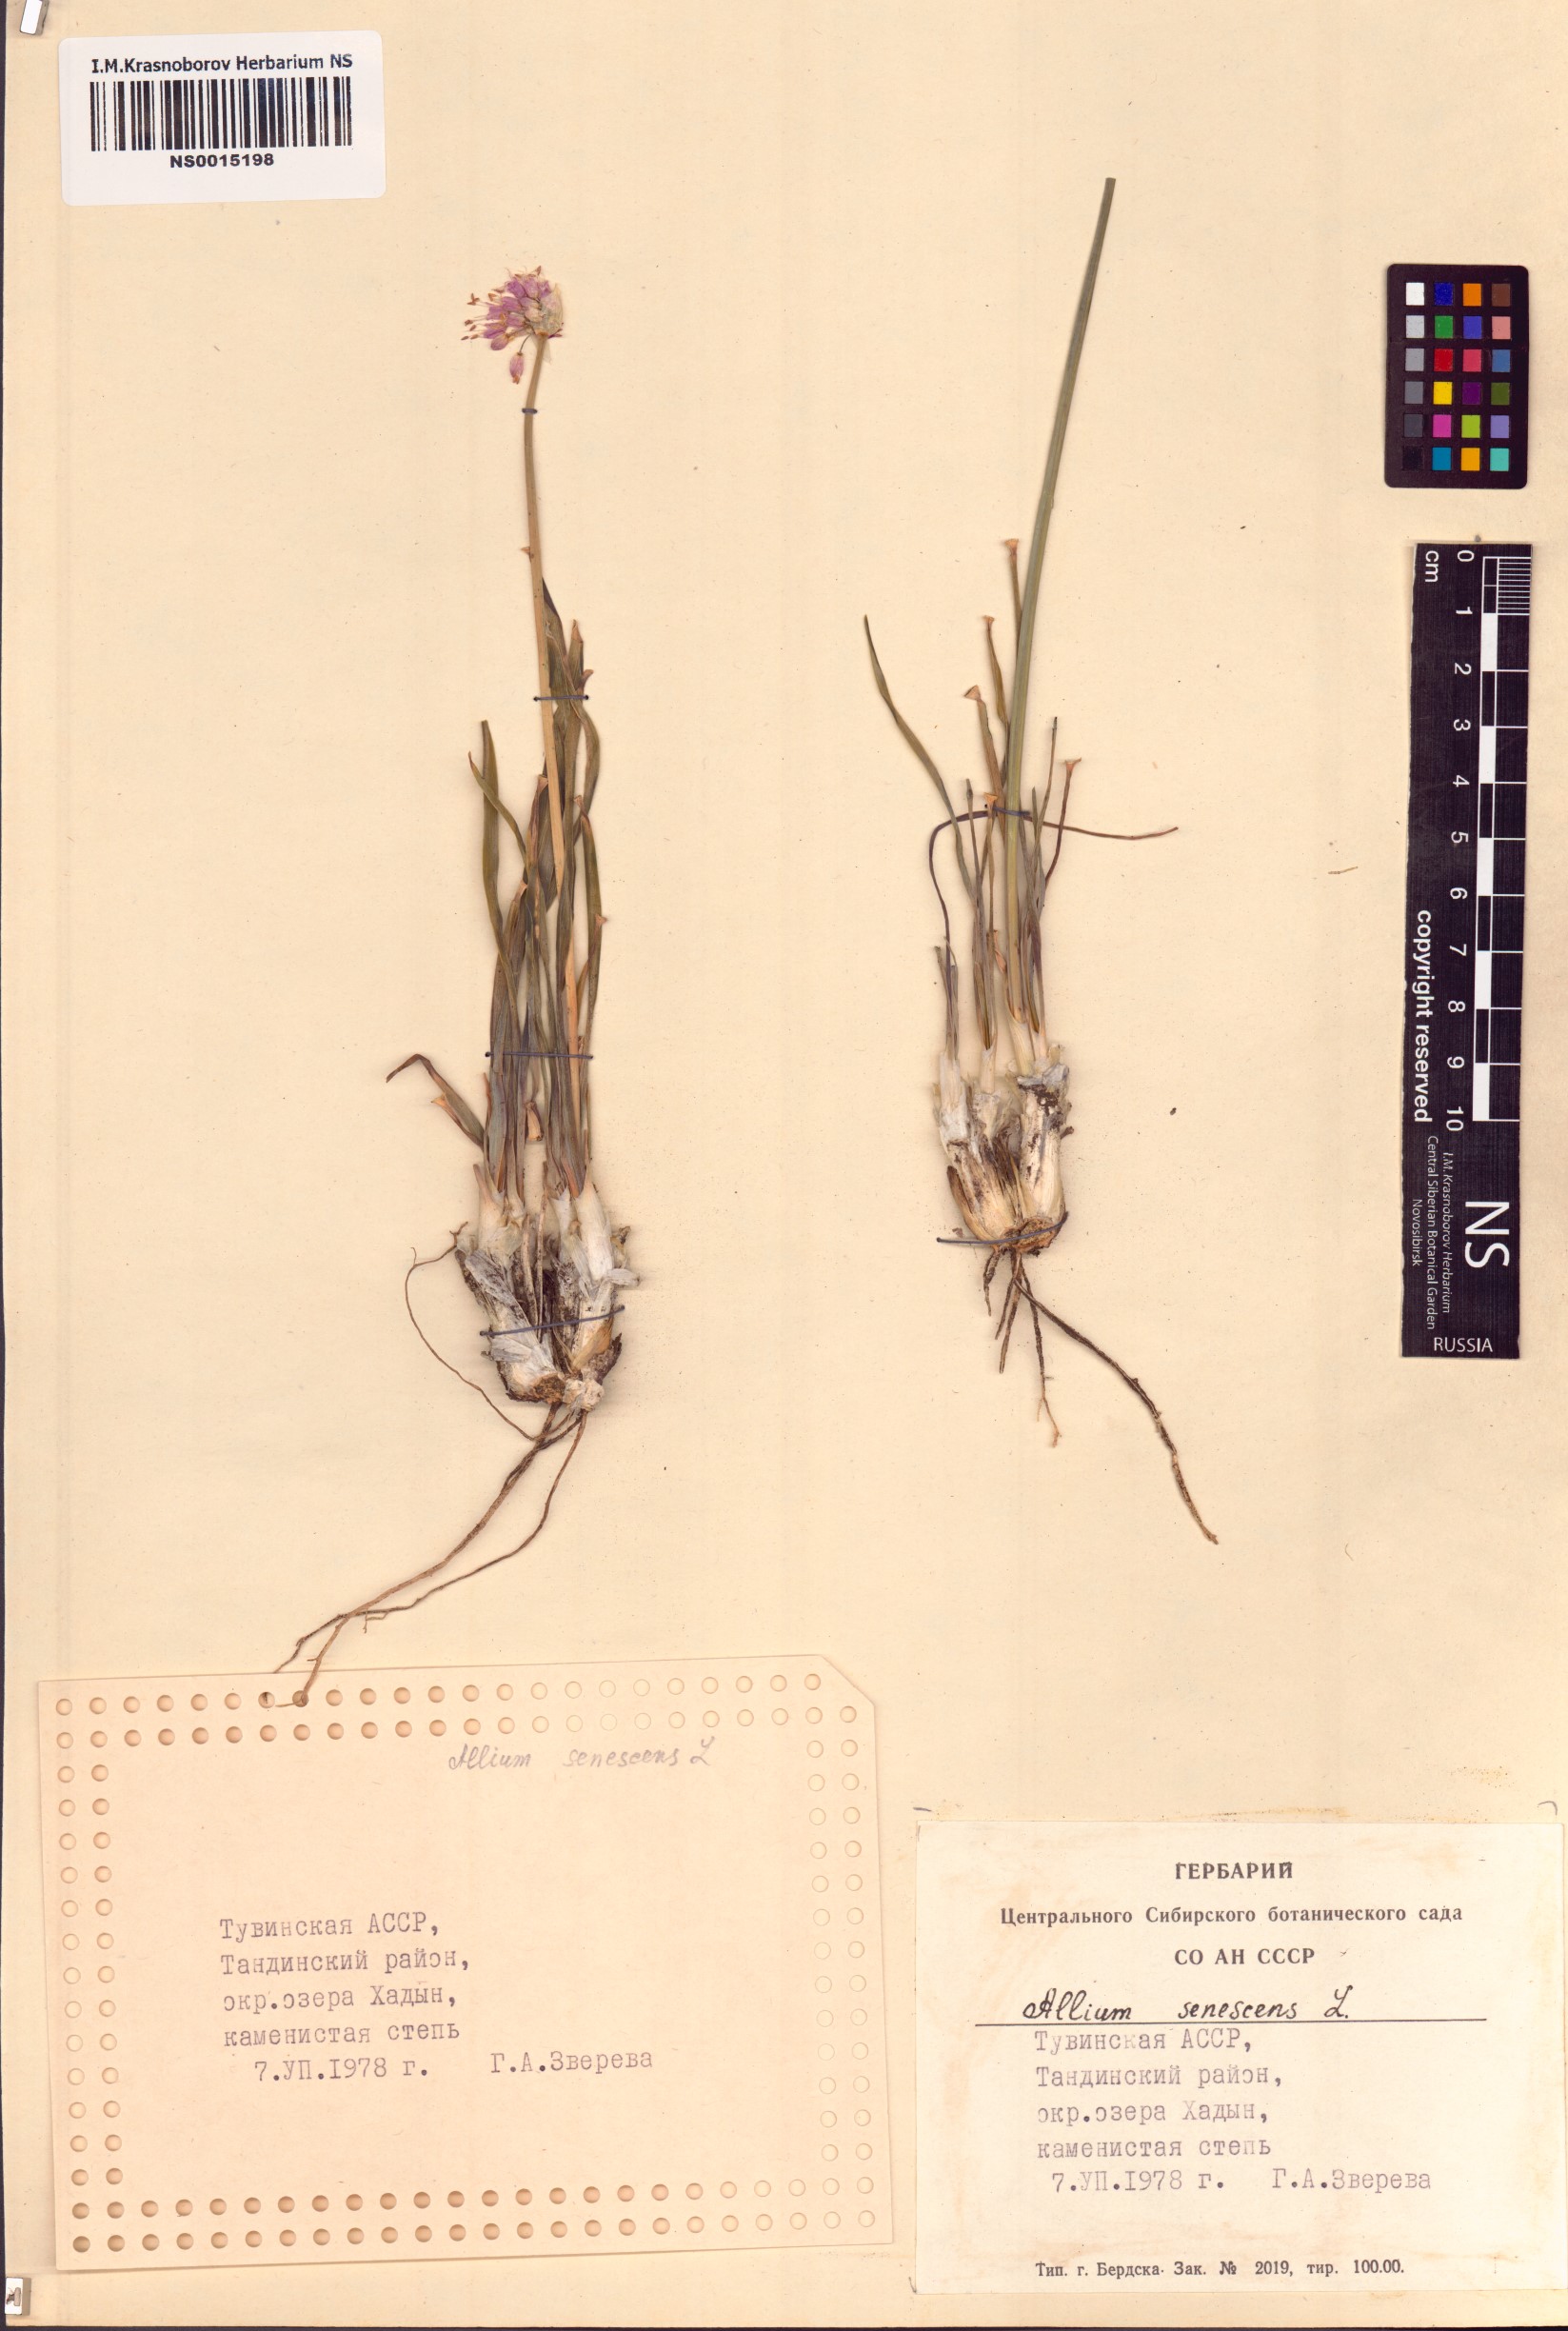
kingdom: Plantae
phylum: Tracheophyta
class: Liliopsida
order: Asparagales
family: Amaryllidaceae
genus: Allium
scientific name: Allium senescens
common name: German garlic
